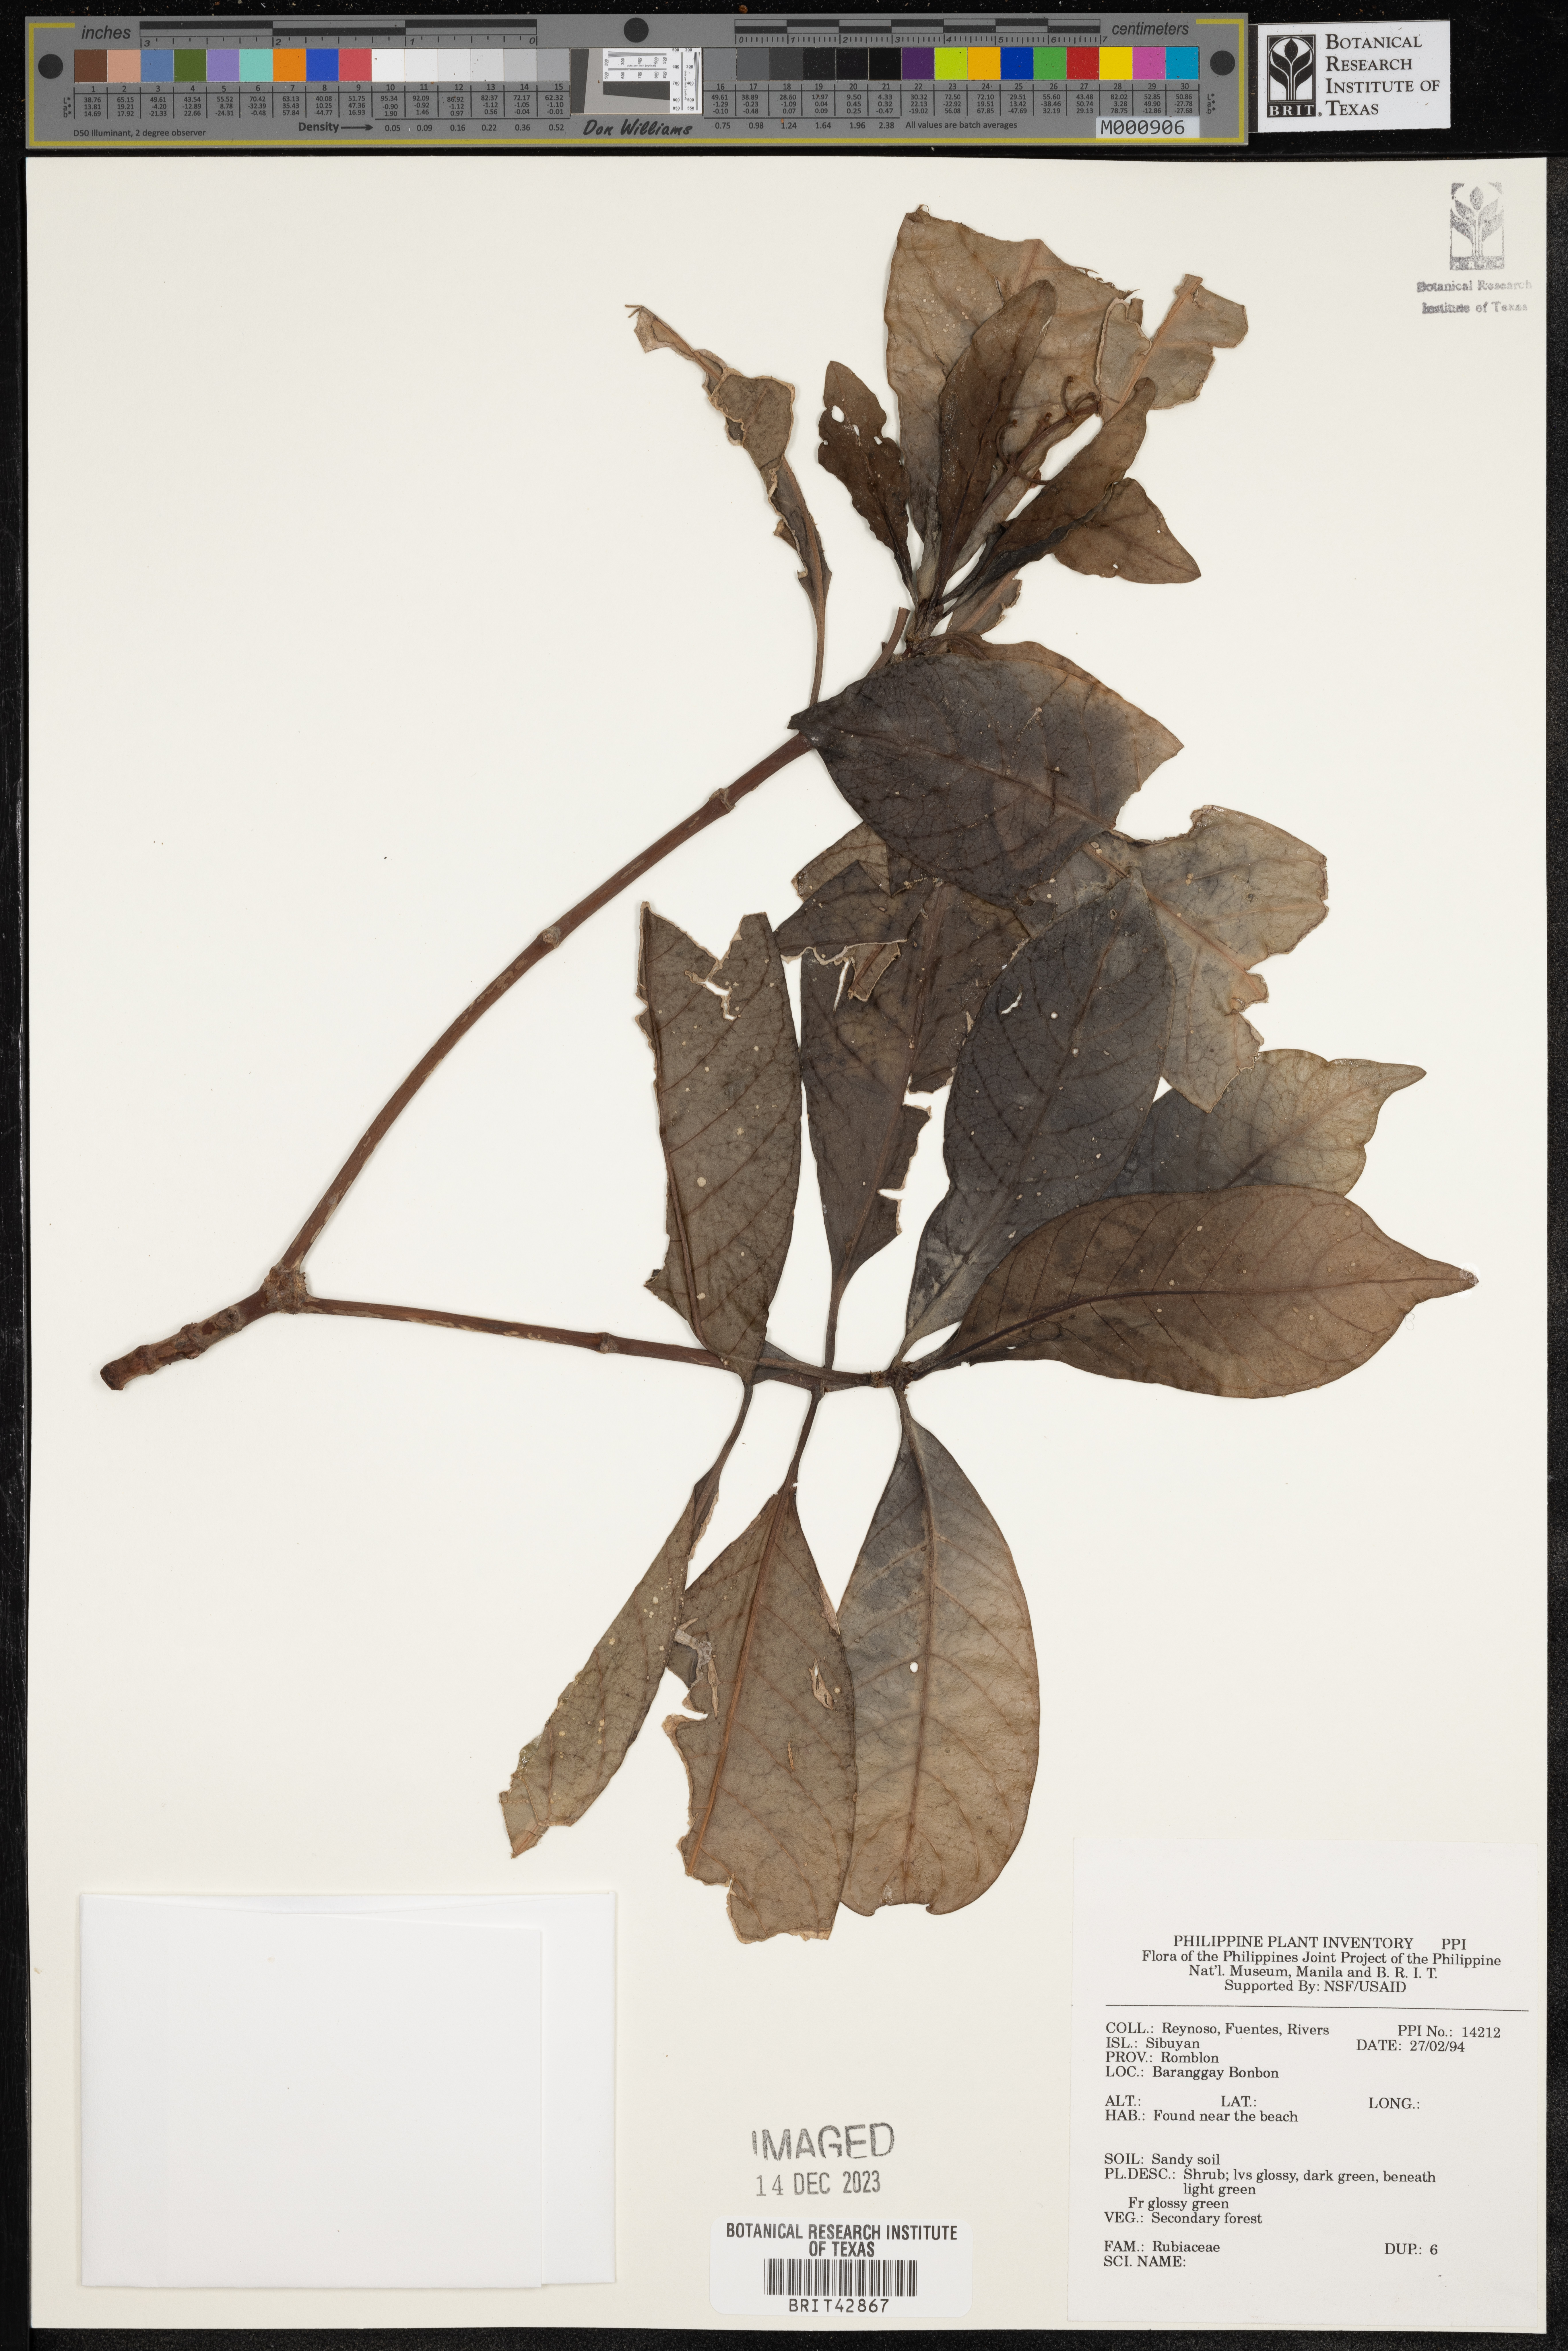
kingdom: Plantae
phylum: Tracheophyta
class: Magnoliopsida
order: Gentianales
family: Rubiaceae
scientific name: Rubiaceae
